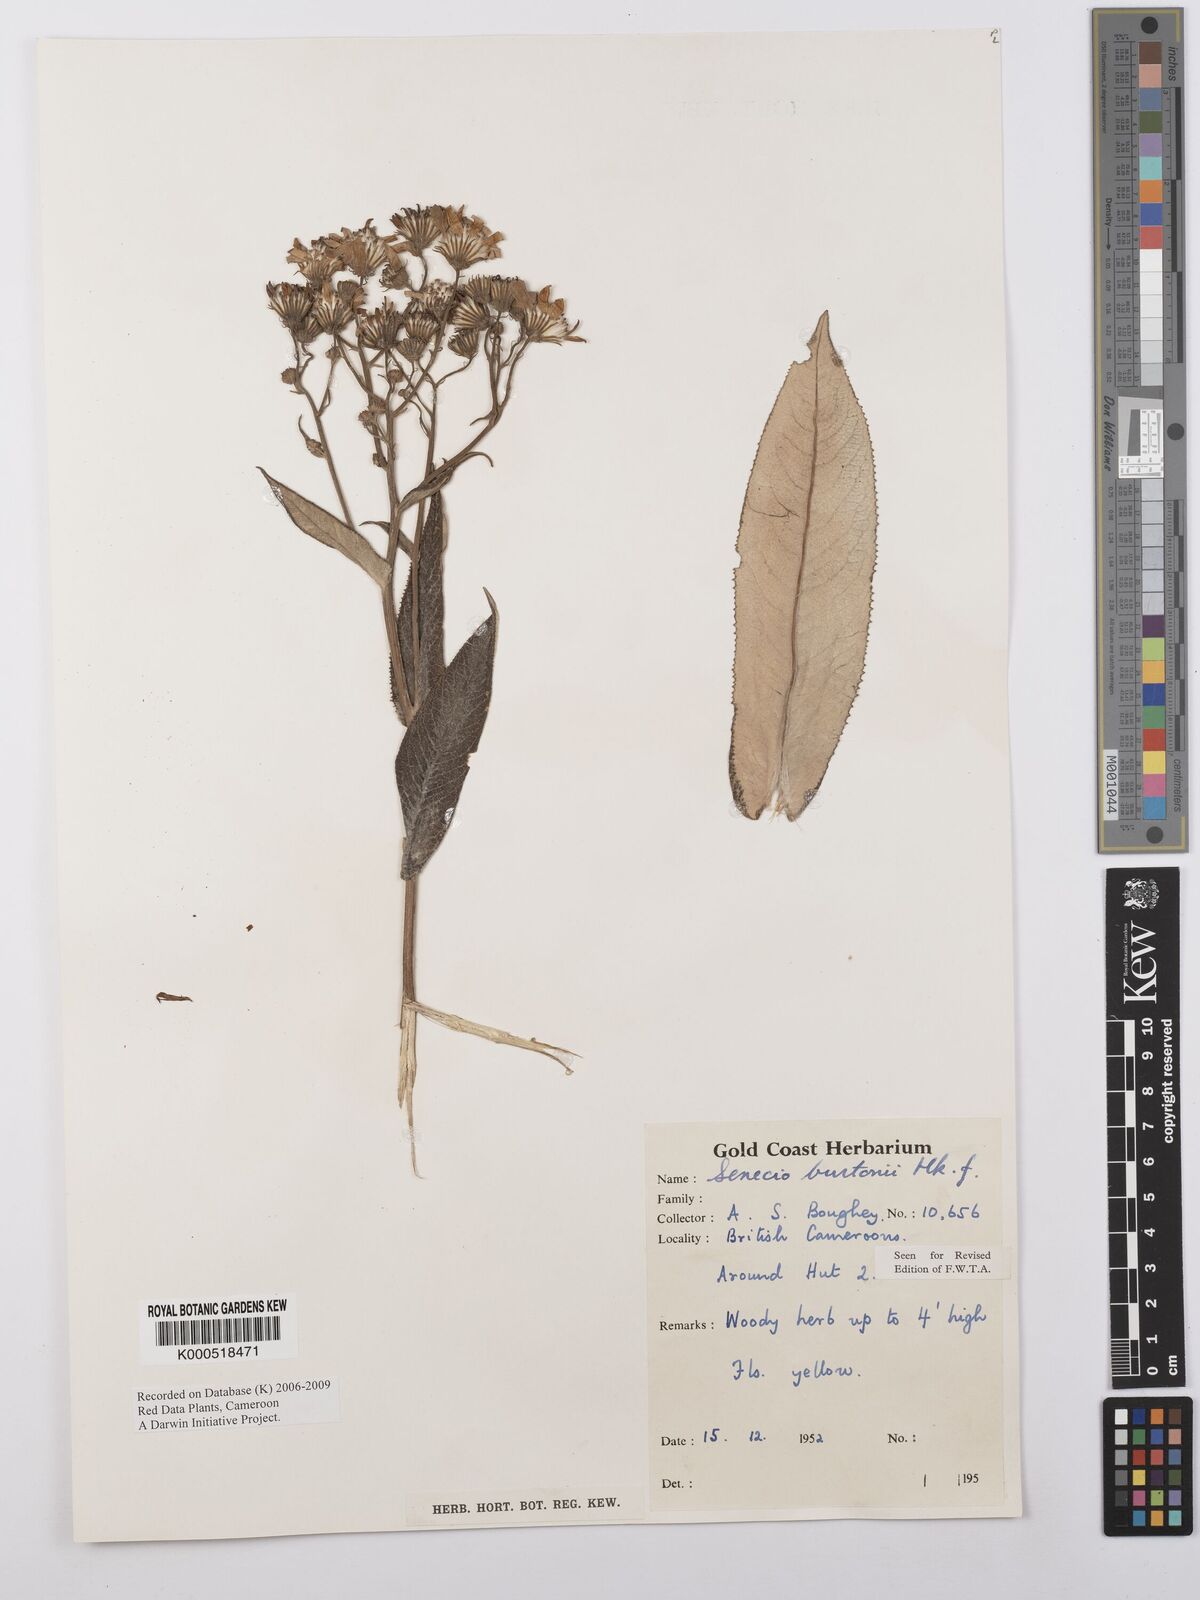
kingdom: Plantae
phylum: Tracheophyta
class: Magnoliopsida
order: Asterales
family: Asteraceae
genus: Senecio
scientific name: Senecio burtonii
